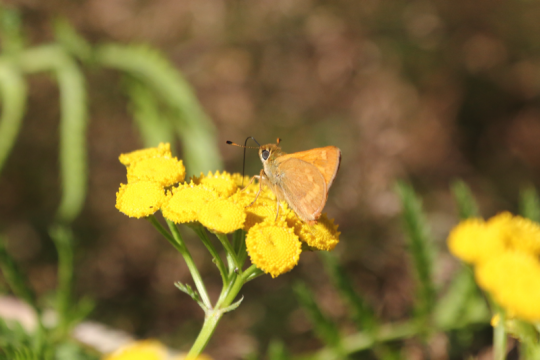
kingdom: Animalia
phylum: Arthropoda
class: Insecta
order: Lepidoptera
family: Hesperiidae
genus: Ochlodes
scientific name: Ochlodes sylvanoides
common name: Woodland Skipper
